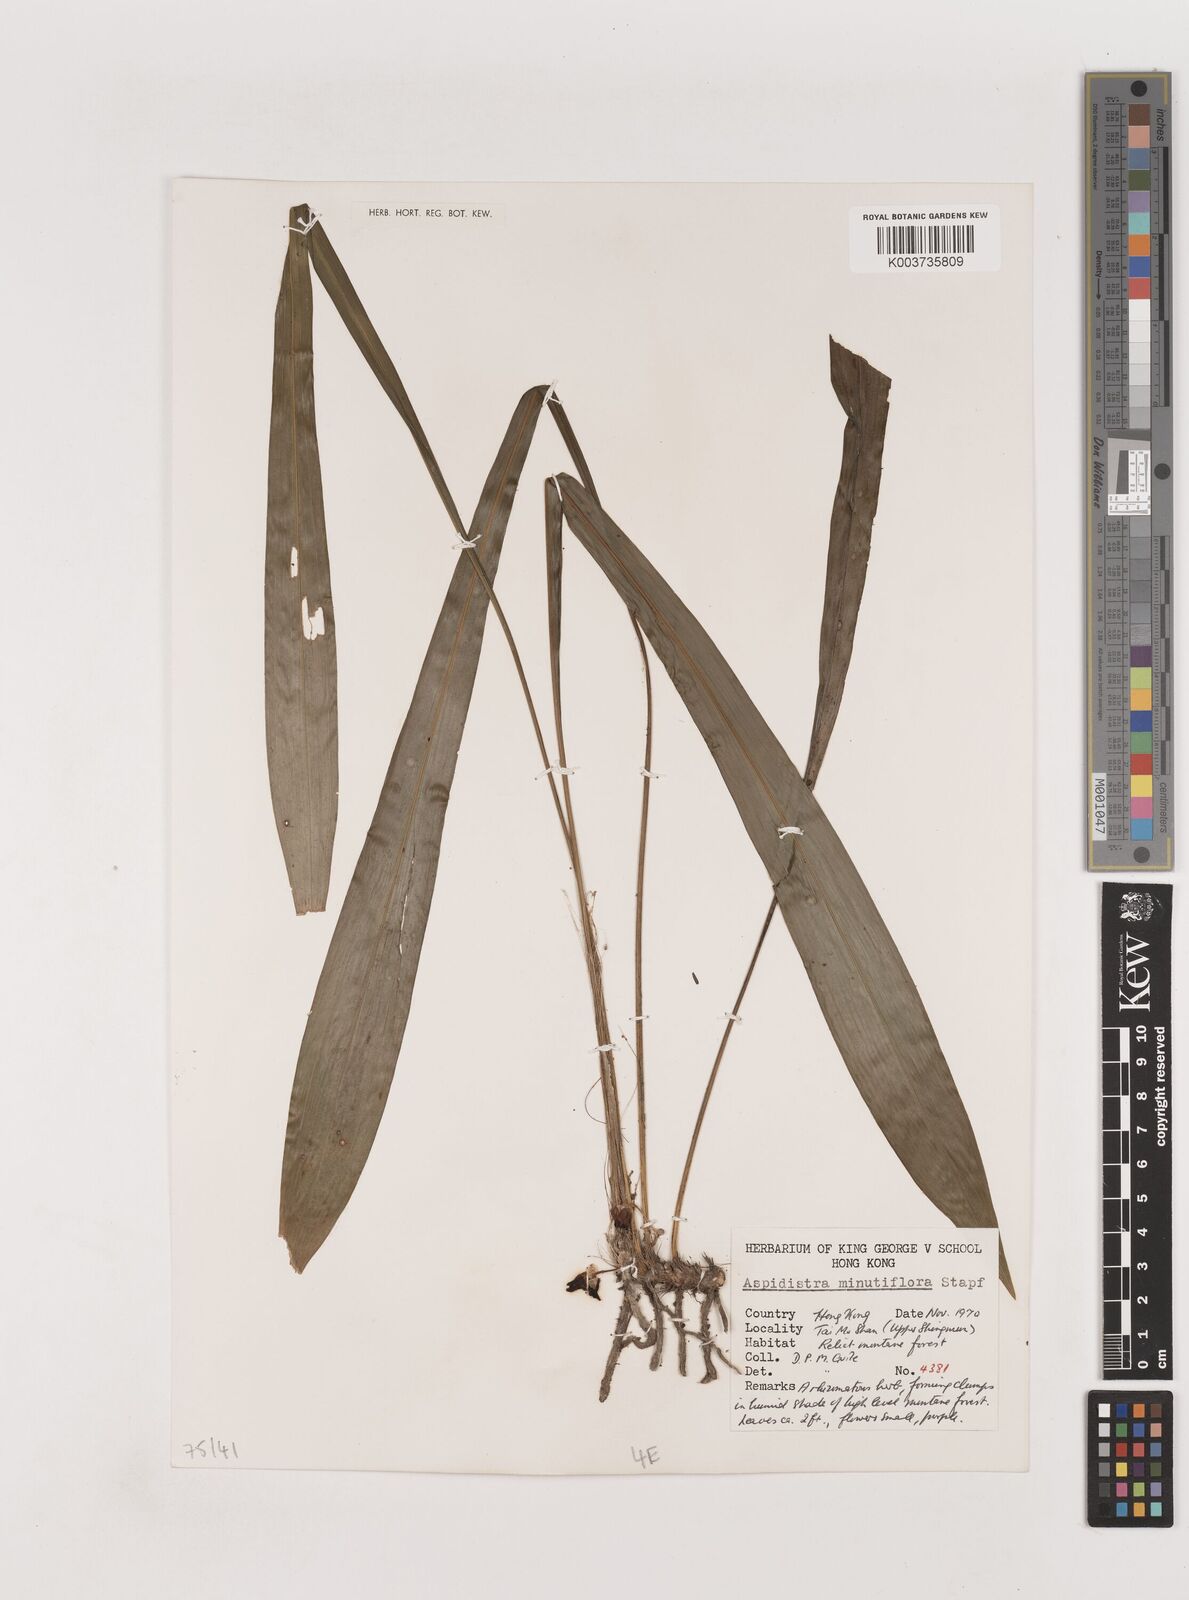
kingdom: Plantae
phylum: Tracheophyta
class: Liliopsida
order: Asparagales
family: Asparagaceae
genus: Aspidistra
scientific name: Aspidistra minutiflora
